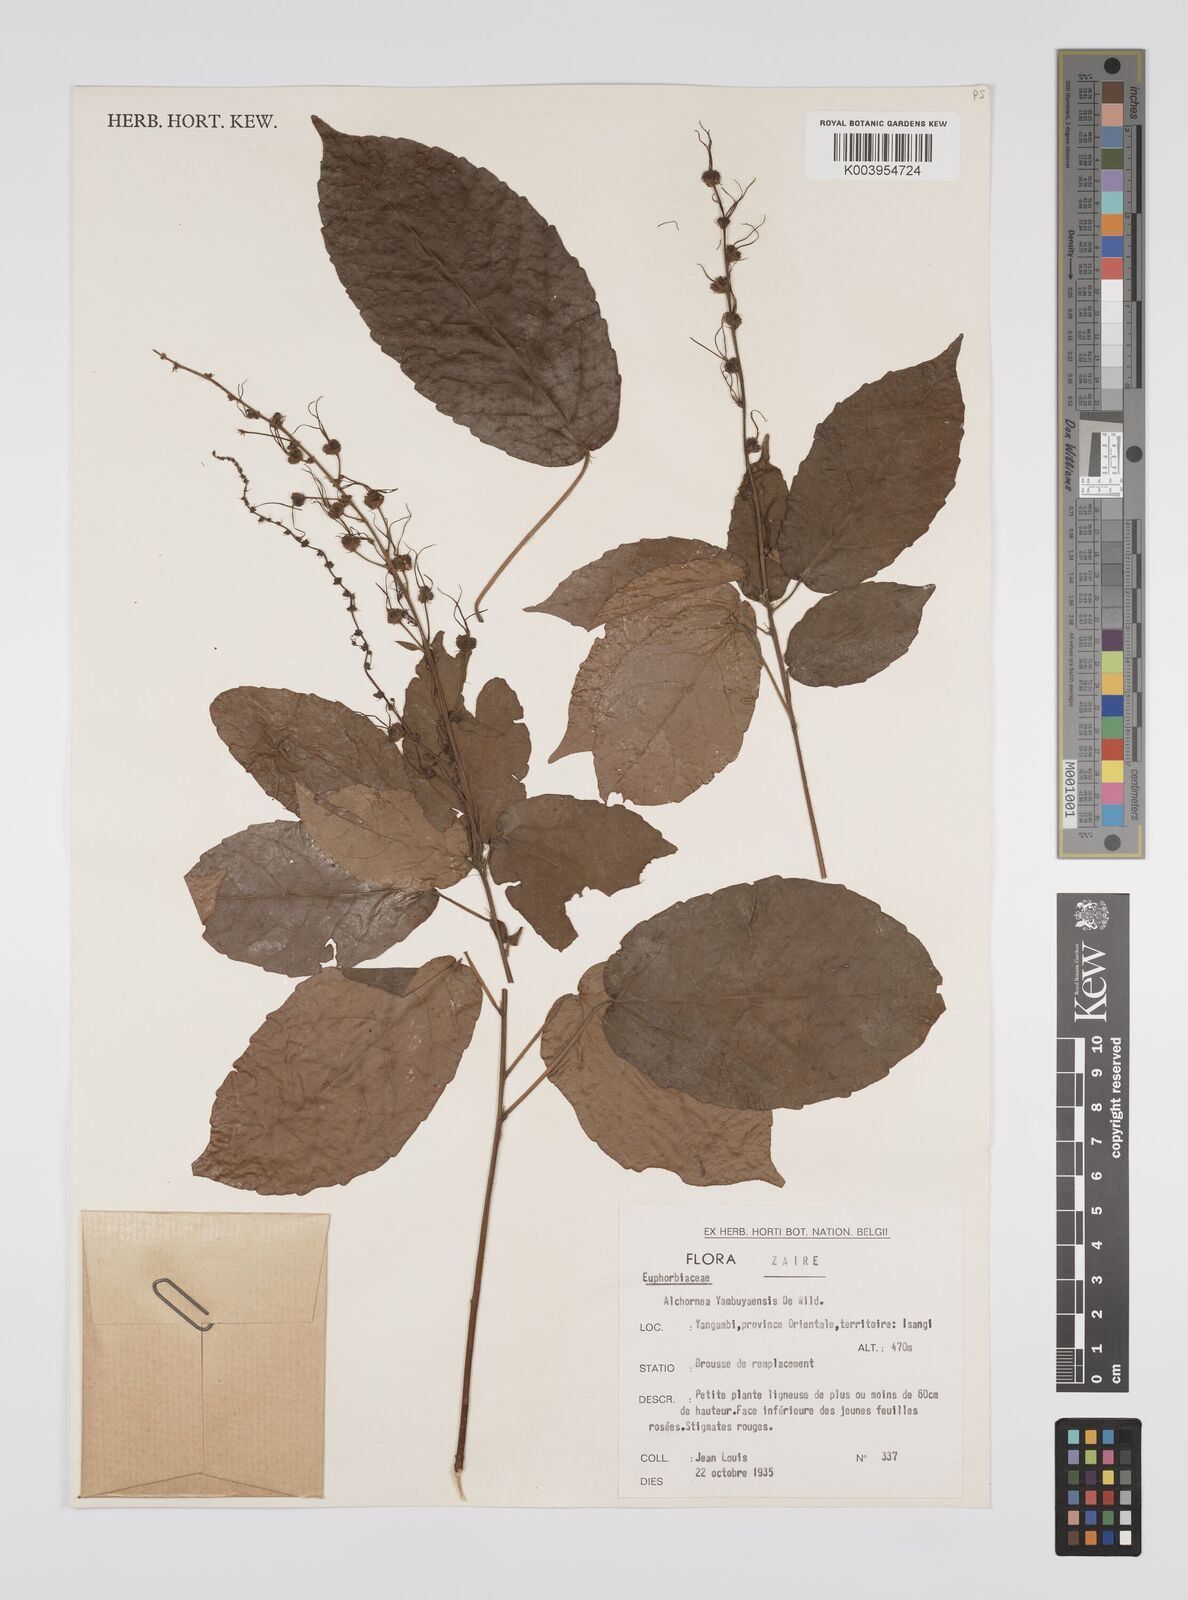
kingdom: Plantae
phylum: Tracheophyta
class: Magnoliopsida
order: Malpighiales
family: Euphorbiaceae
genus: Alchornea
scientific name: Alchornea yambuyaensis
